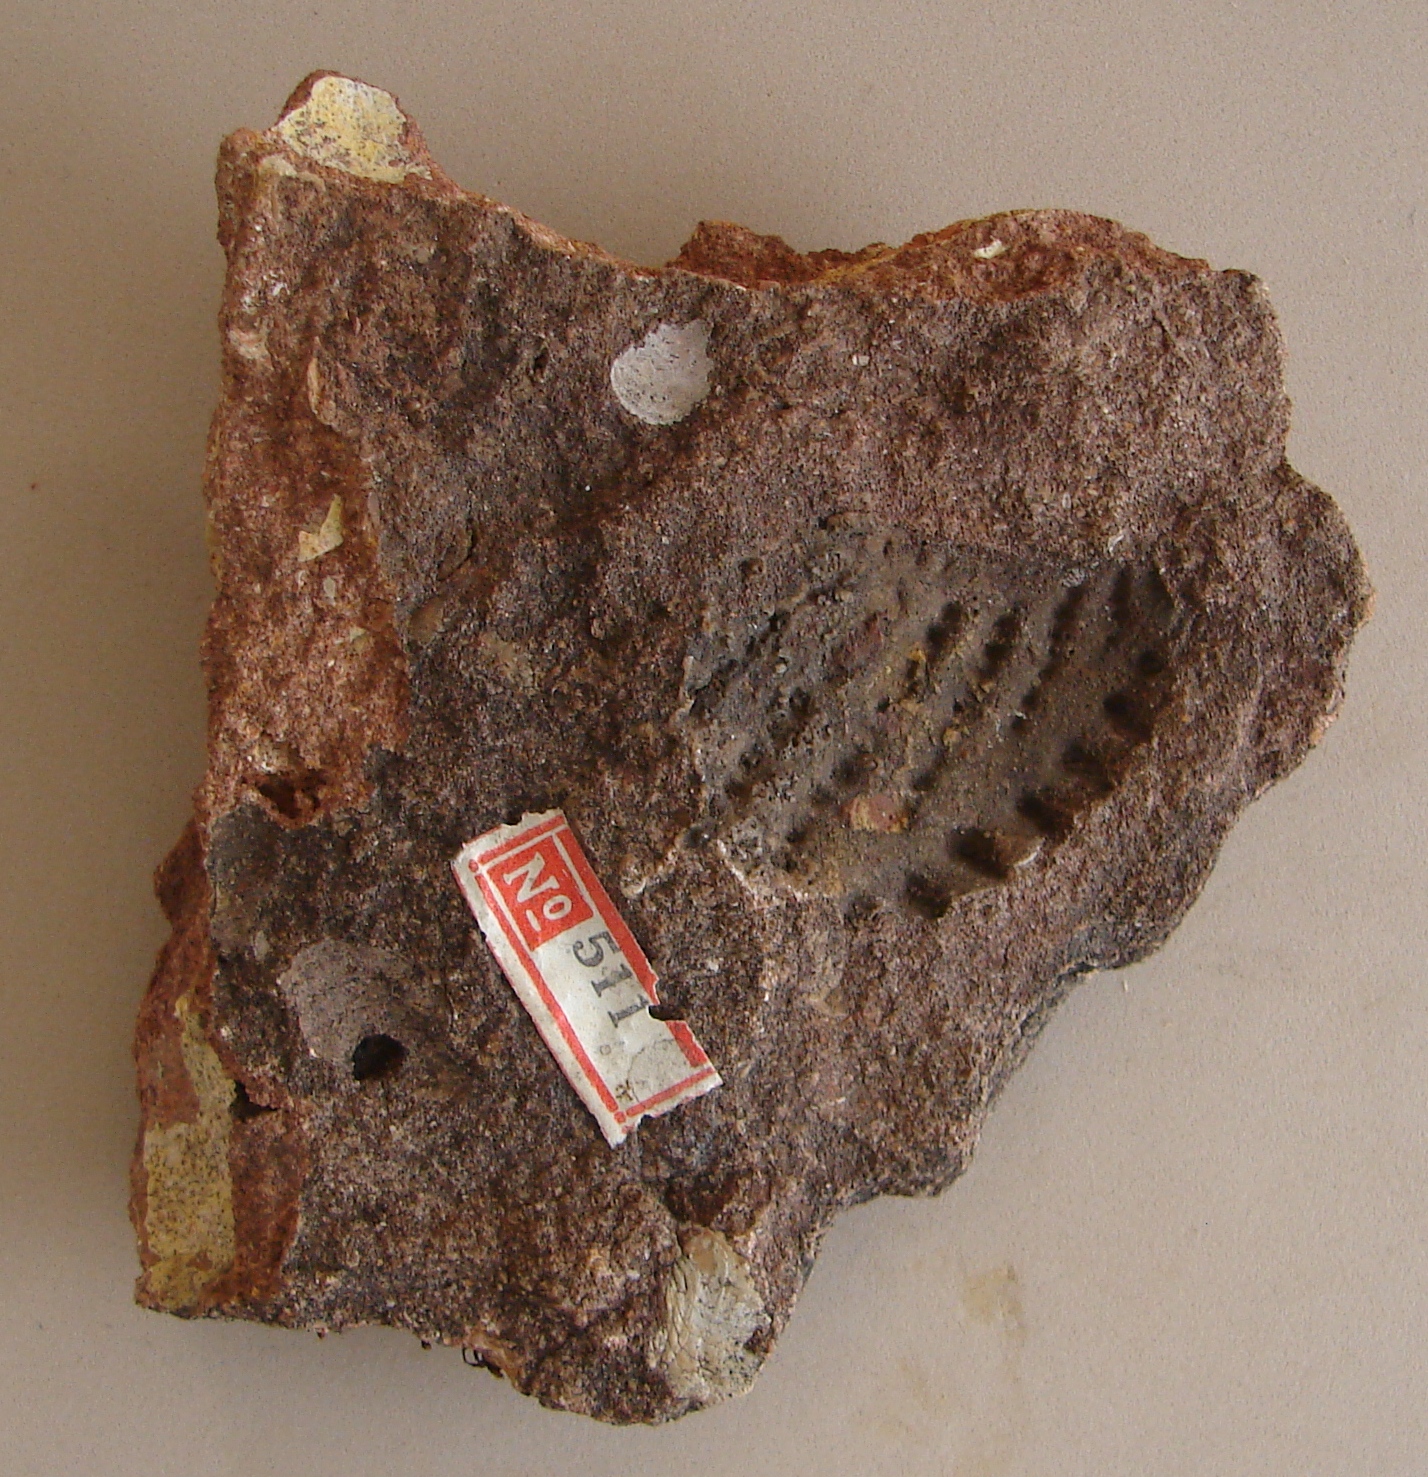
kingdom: Animalia
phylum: Mollusca
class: Bivalvia
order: Trigoniida
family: Myophorellidae
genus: Scaphotrigonia
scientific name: Scaphotrigonia navis
